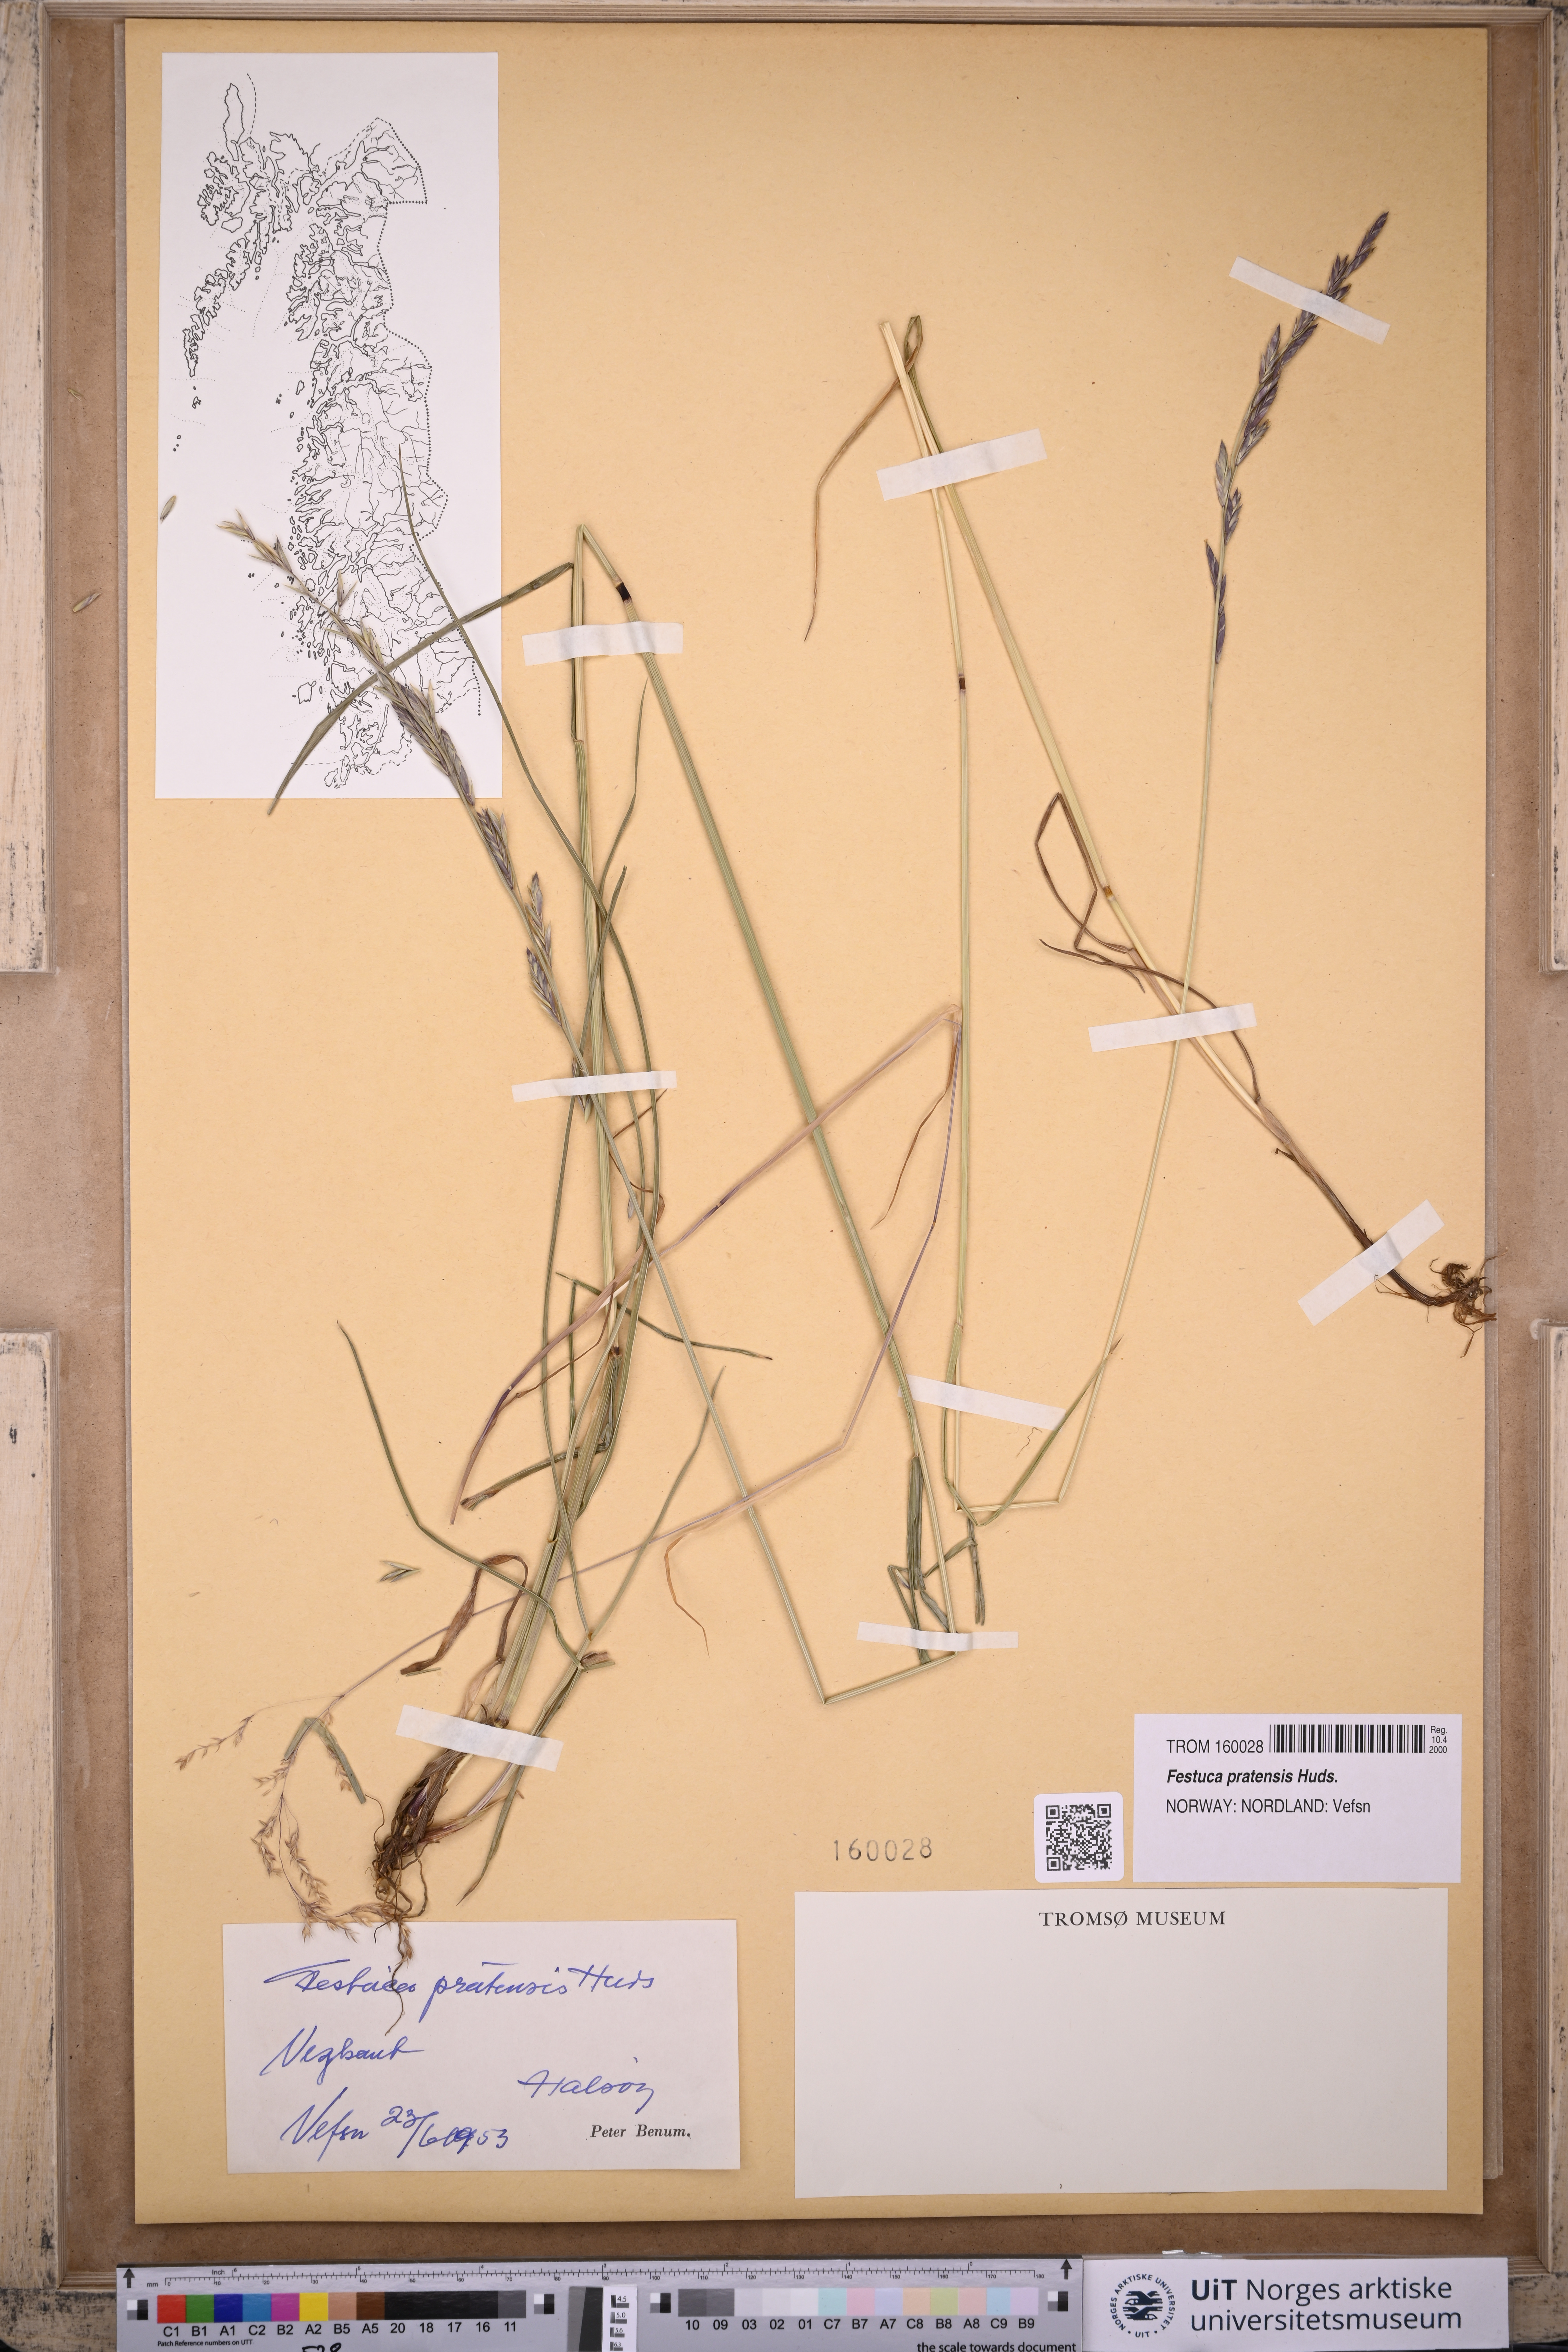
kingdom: Plantae
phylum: Tracheophyta
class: Liliopsida
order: Poales
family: Poaceae
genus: Lolium
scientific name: Lolium pratense
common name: Dover grass
